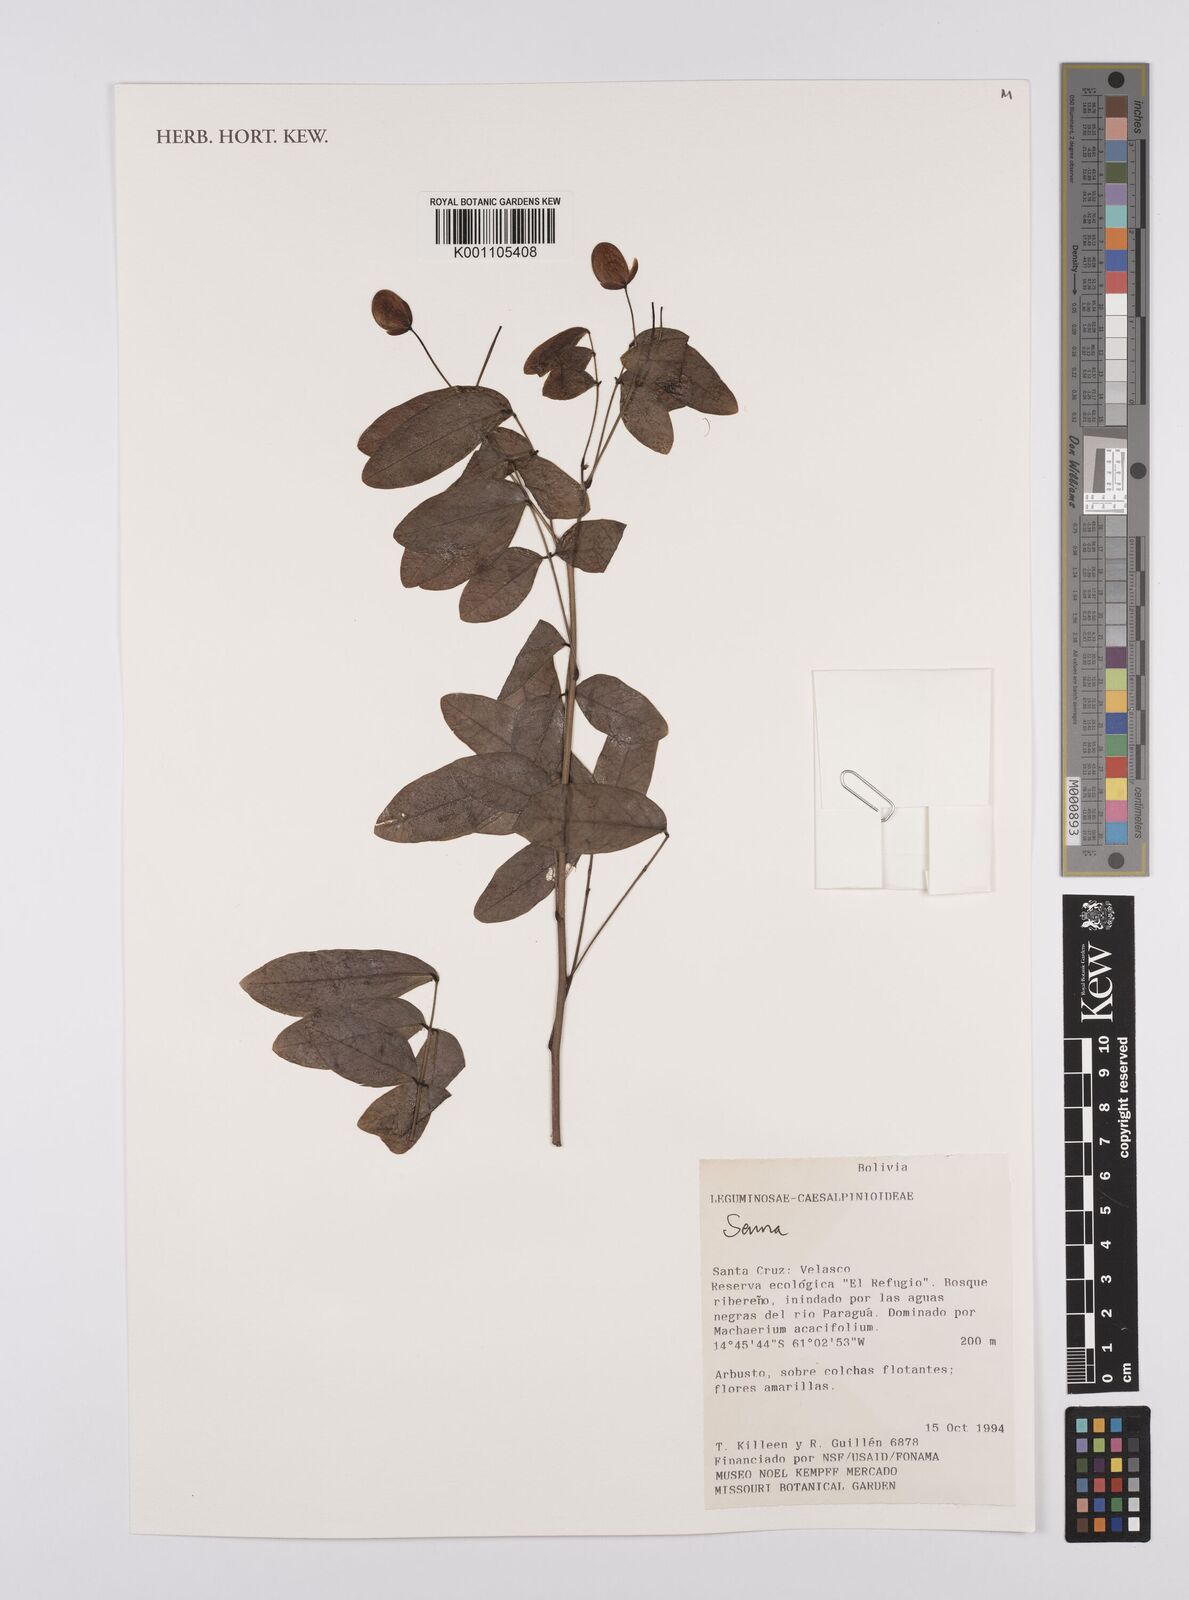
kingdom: Plantae
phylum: Tracheophyta
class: Magnoliopsida
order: Fabales
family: Fabaceae
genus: Senna
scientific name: Senna
